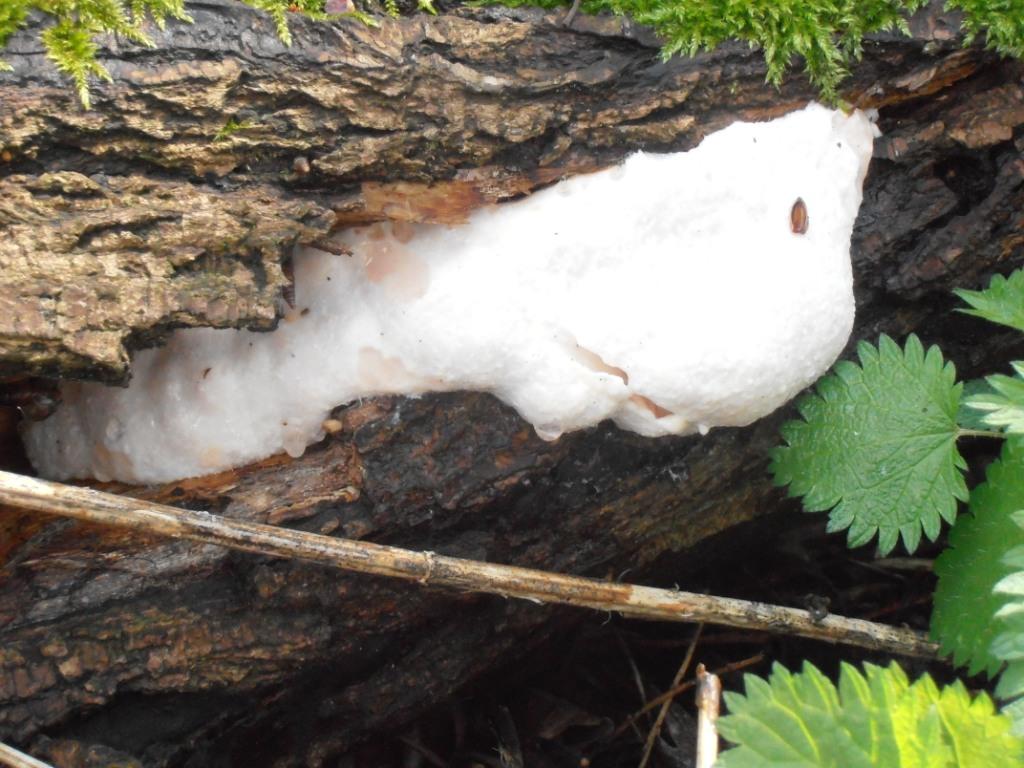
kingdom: Protozoa
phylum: Mycetozoa
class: Myxomycetes
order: Cribrariales
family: Tubiferaceae
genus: Reticularia
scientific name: Reticularia lycoperdon
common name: skinnende støvpude
